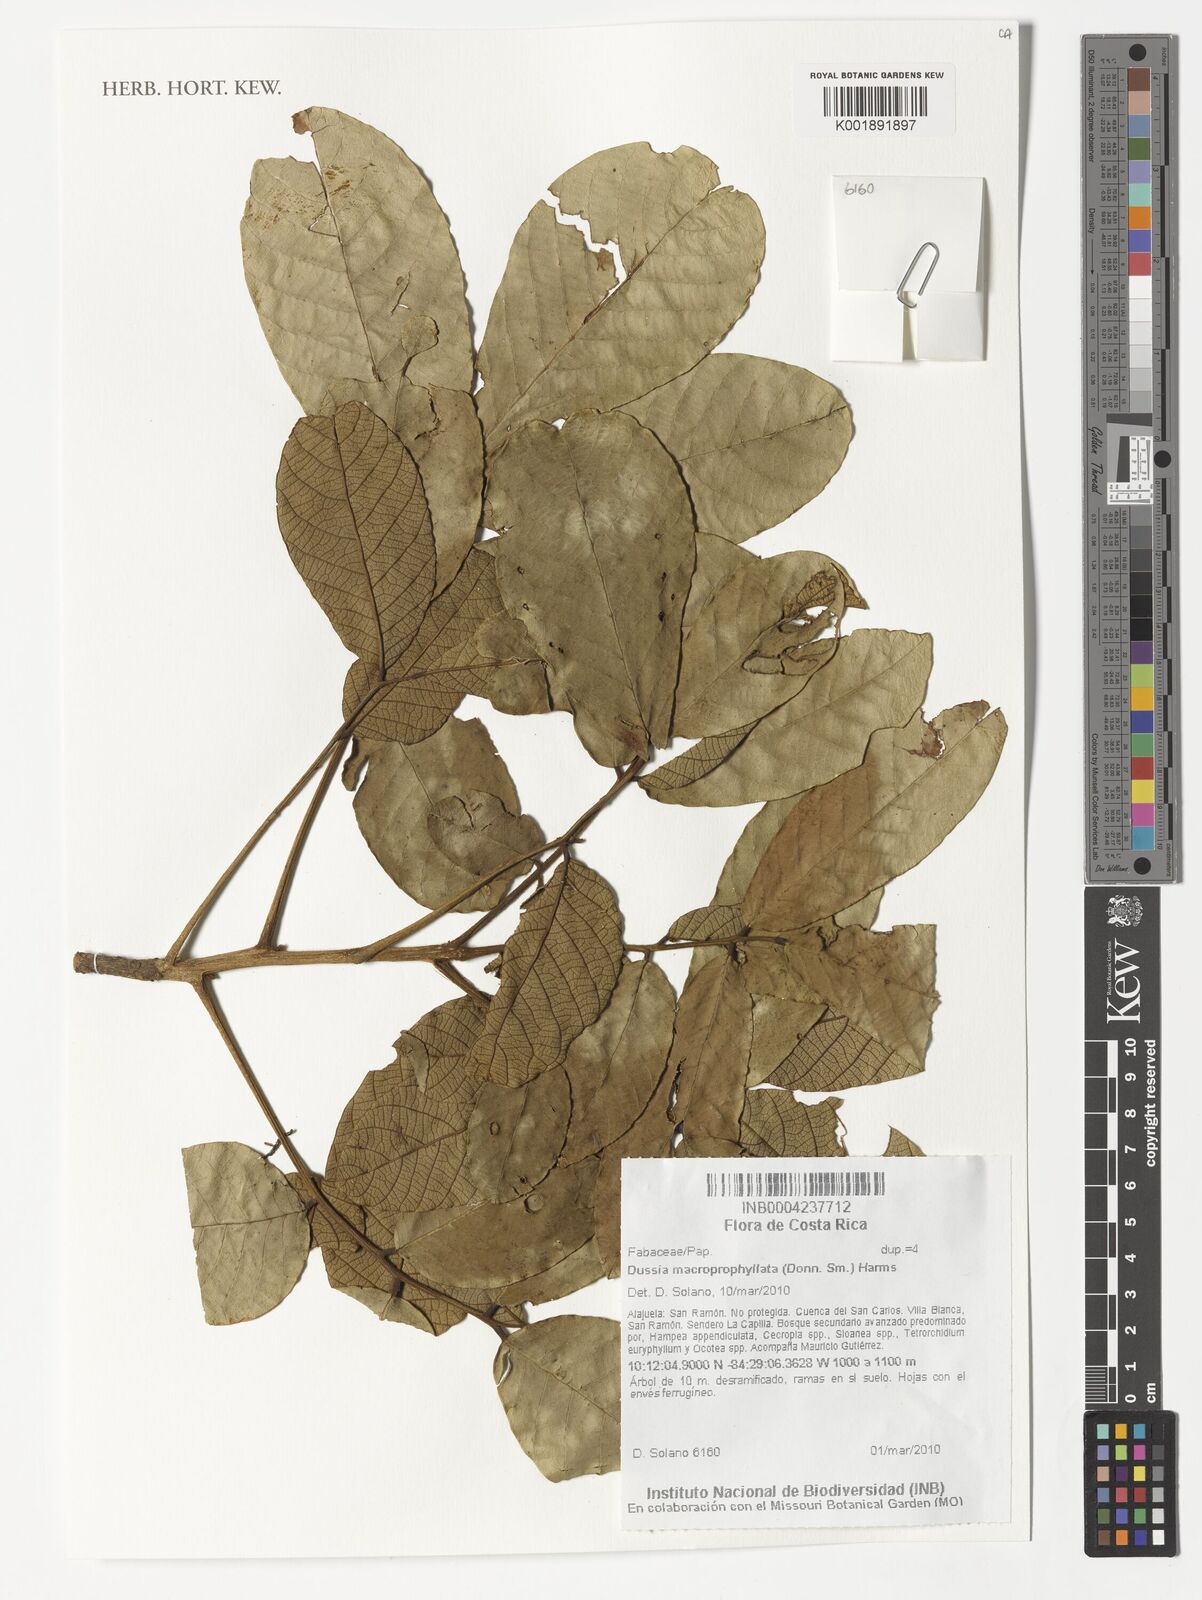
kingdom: Plantae
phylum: Tracheophyta
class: Magnoliopsida
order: Fabales
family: Fabaceae
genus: Dussia
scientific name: Dussia macroprophyllata
